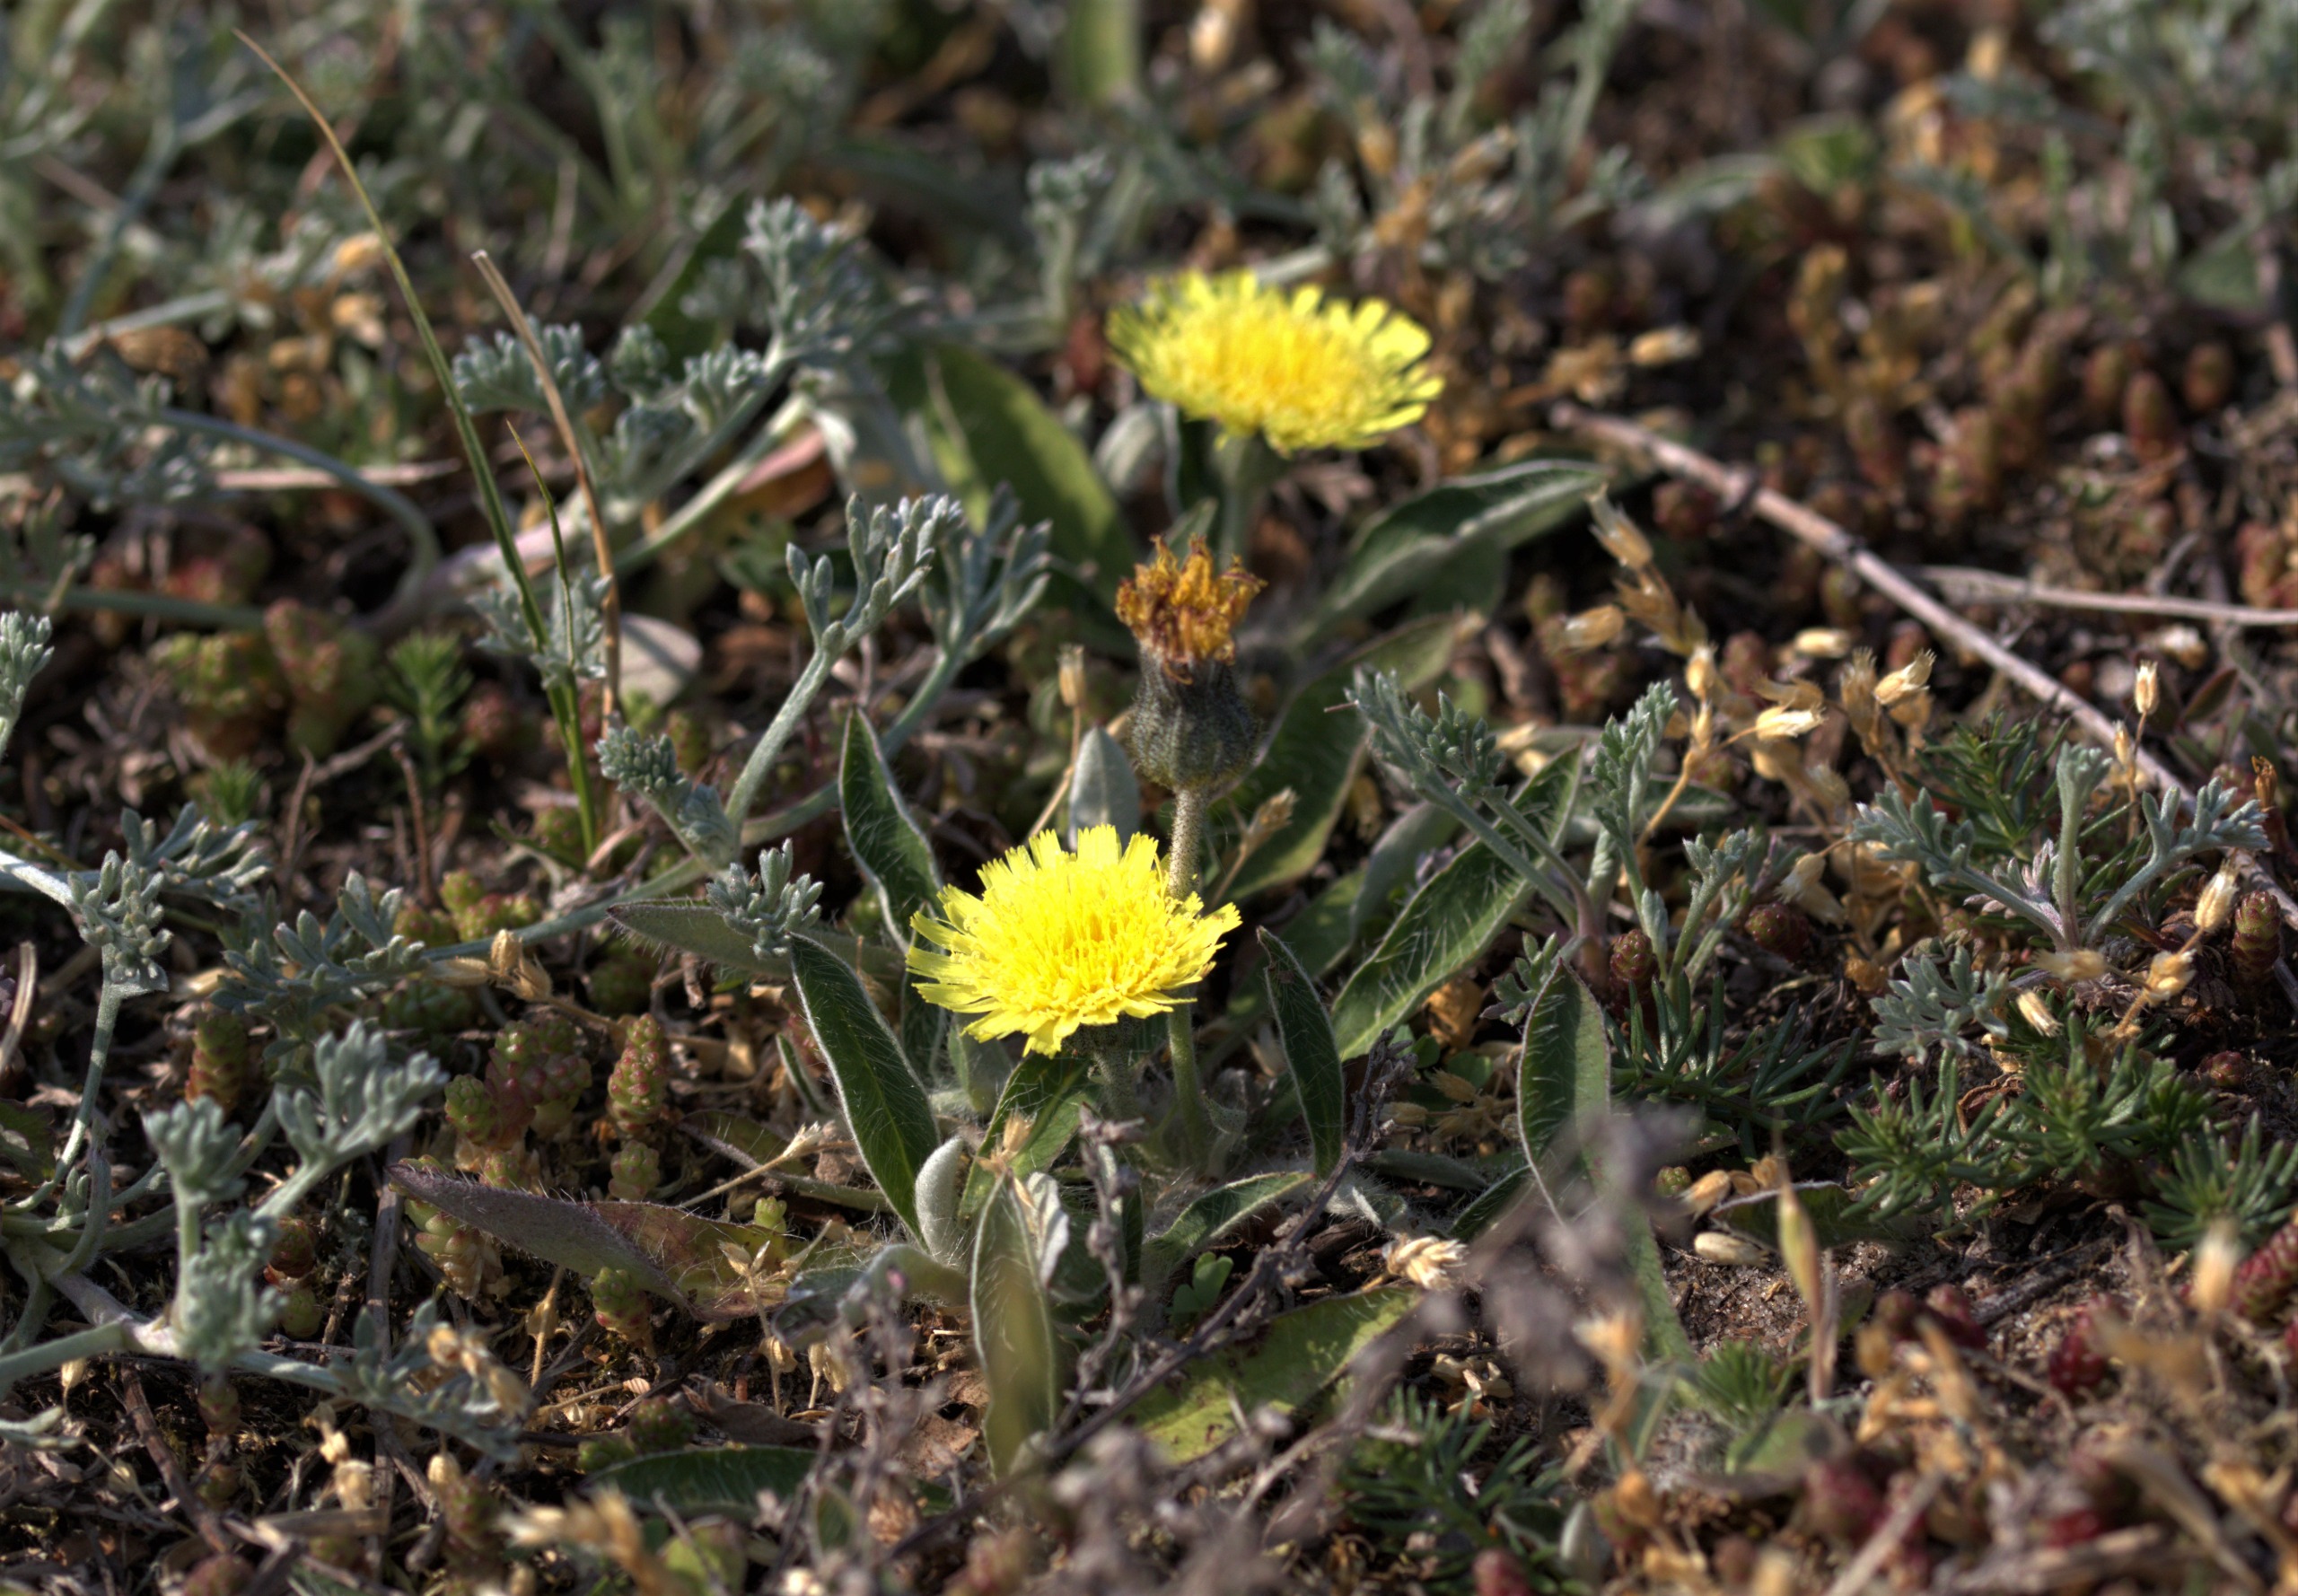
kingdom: Plantae
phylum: Tracheophyta
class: Magnoliopsida
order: Asterales
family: Asteraceae
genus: Pilosella
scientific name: Pilosella officinarum
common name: Håret høgeurt
